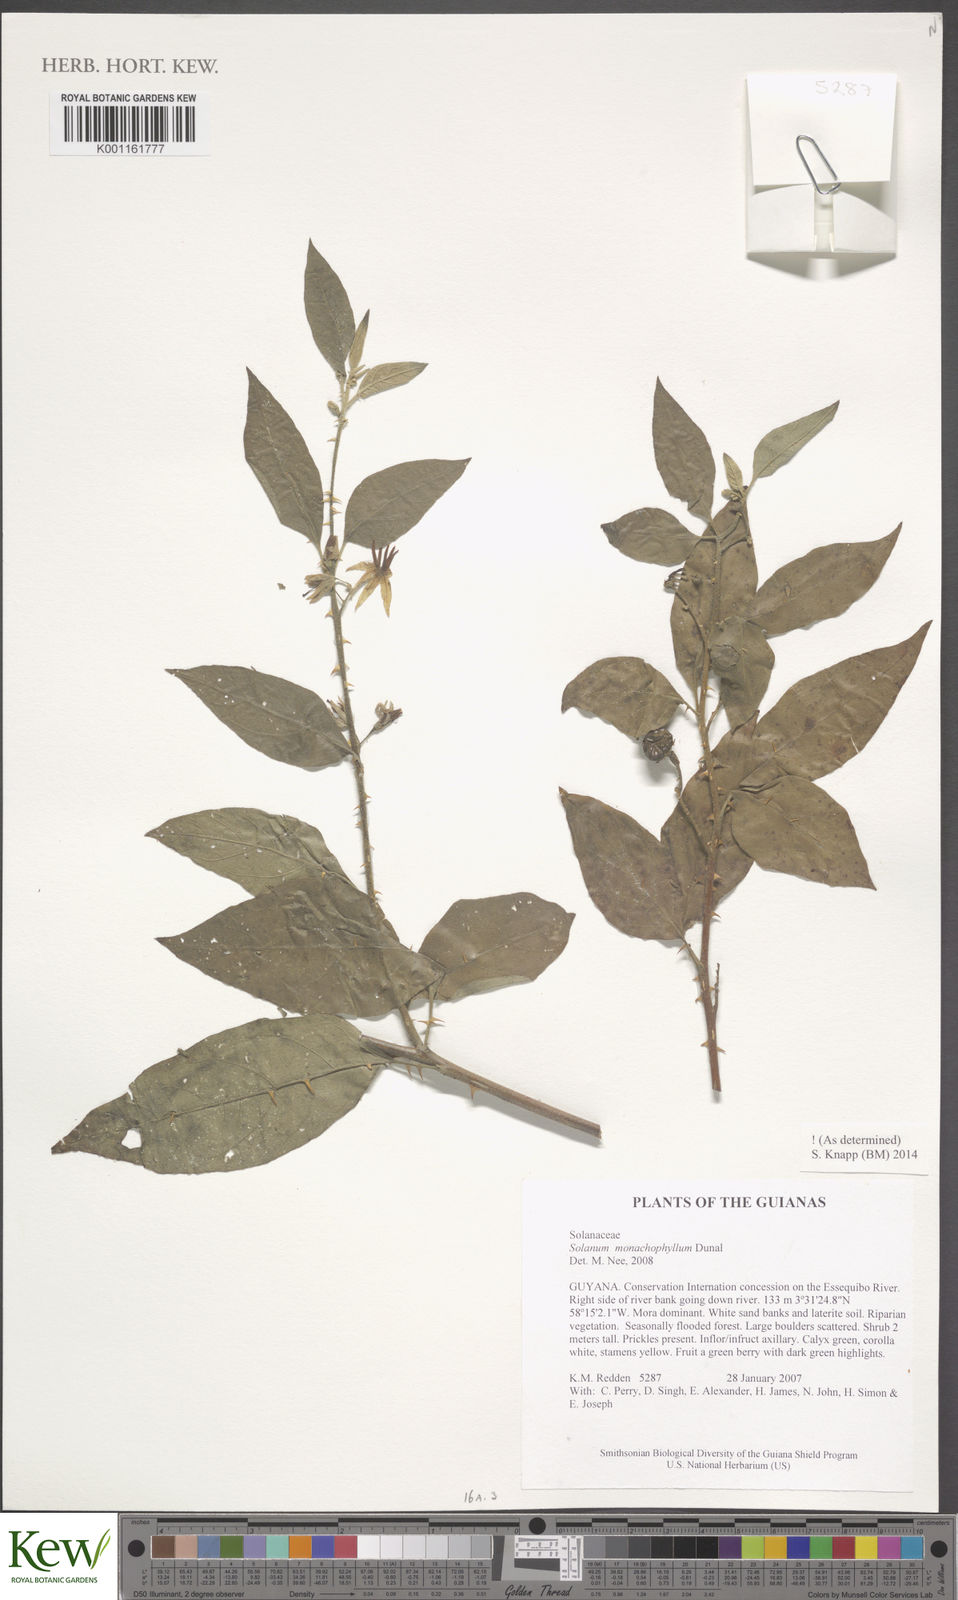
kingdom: Plantae
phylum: Tracheophyta
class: Magnoliopsida
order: Solanales
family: Solanaceae
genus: Solanum
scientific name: Solanum monachophyllum
